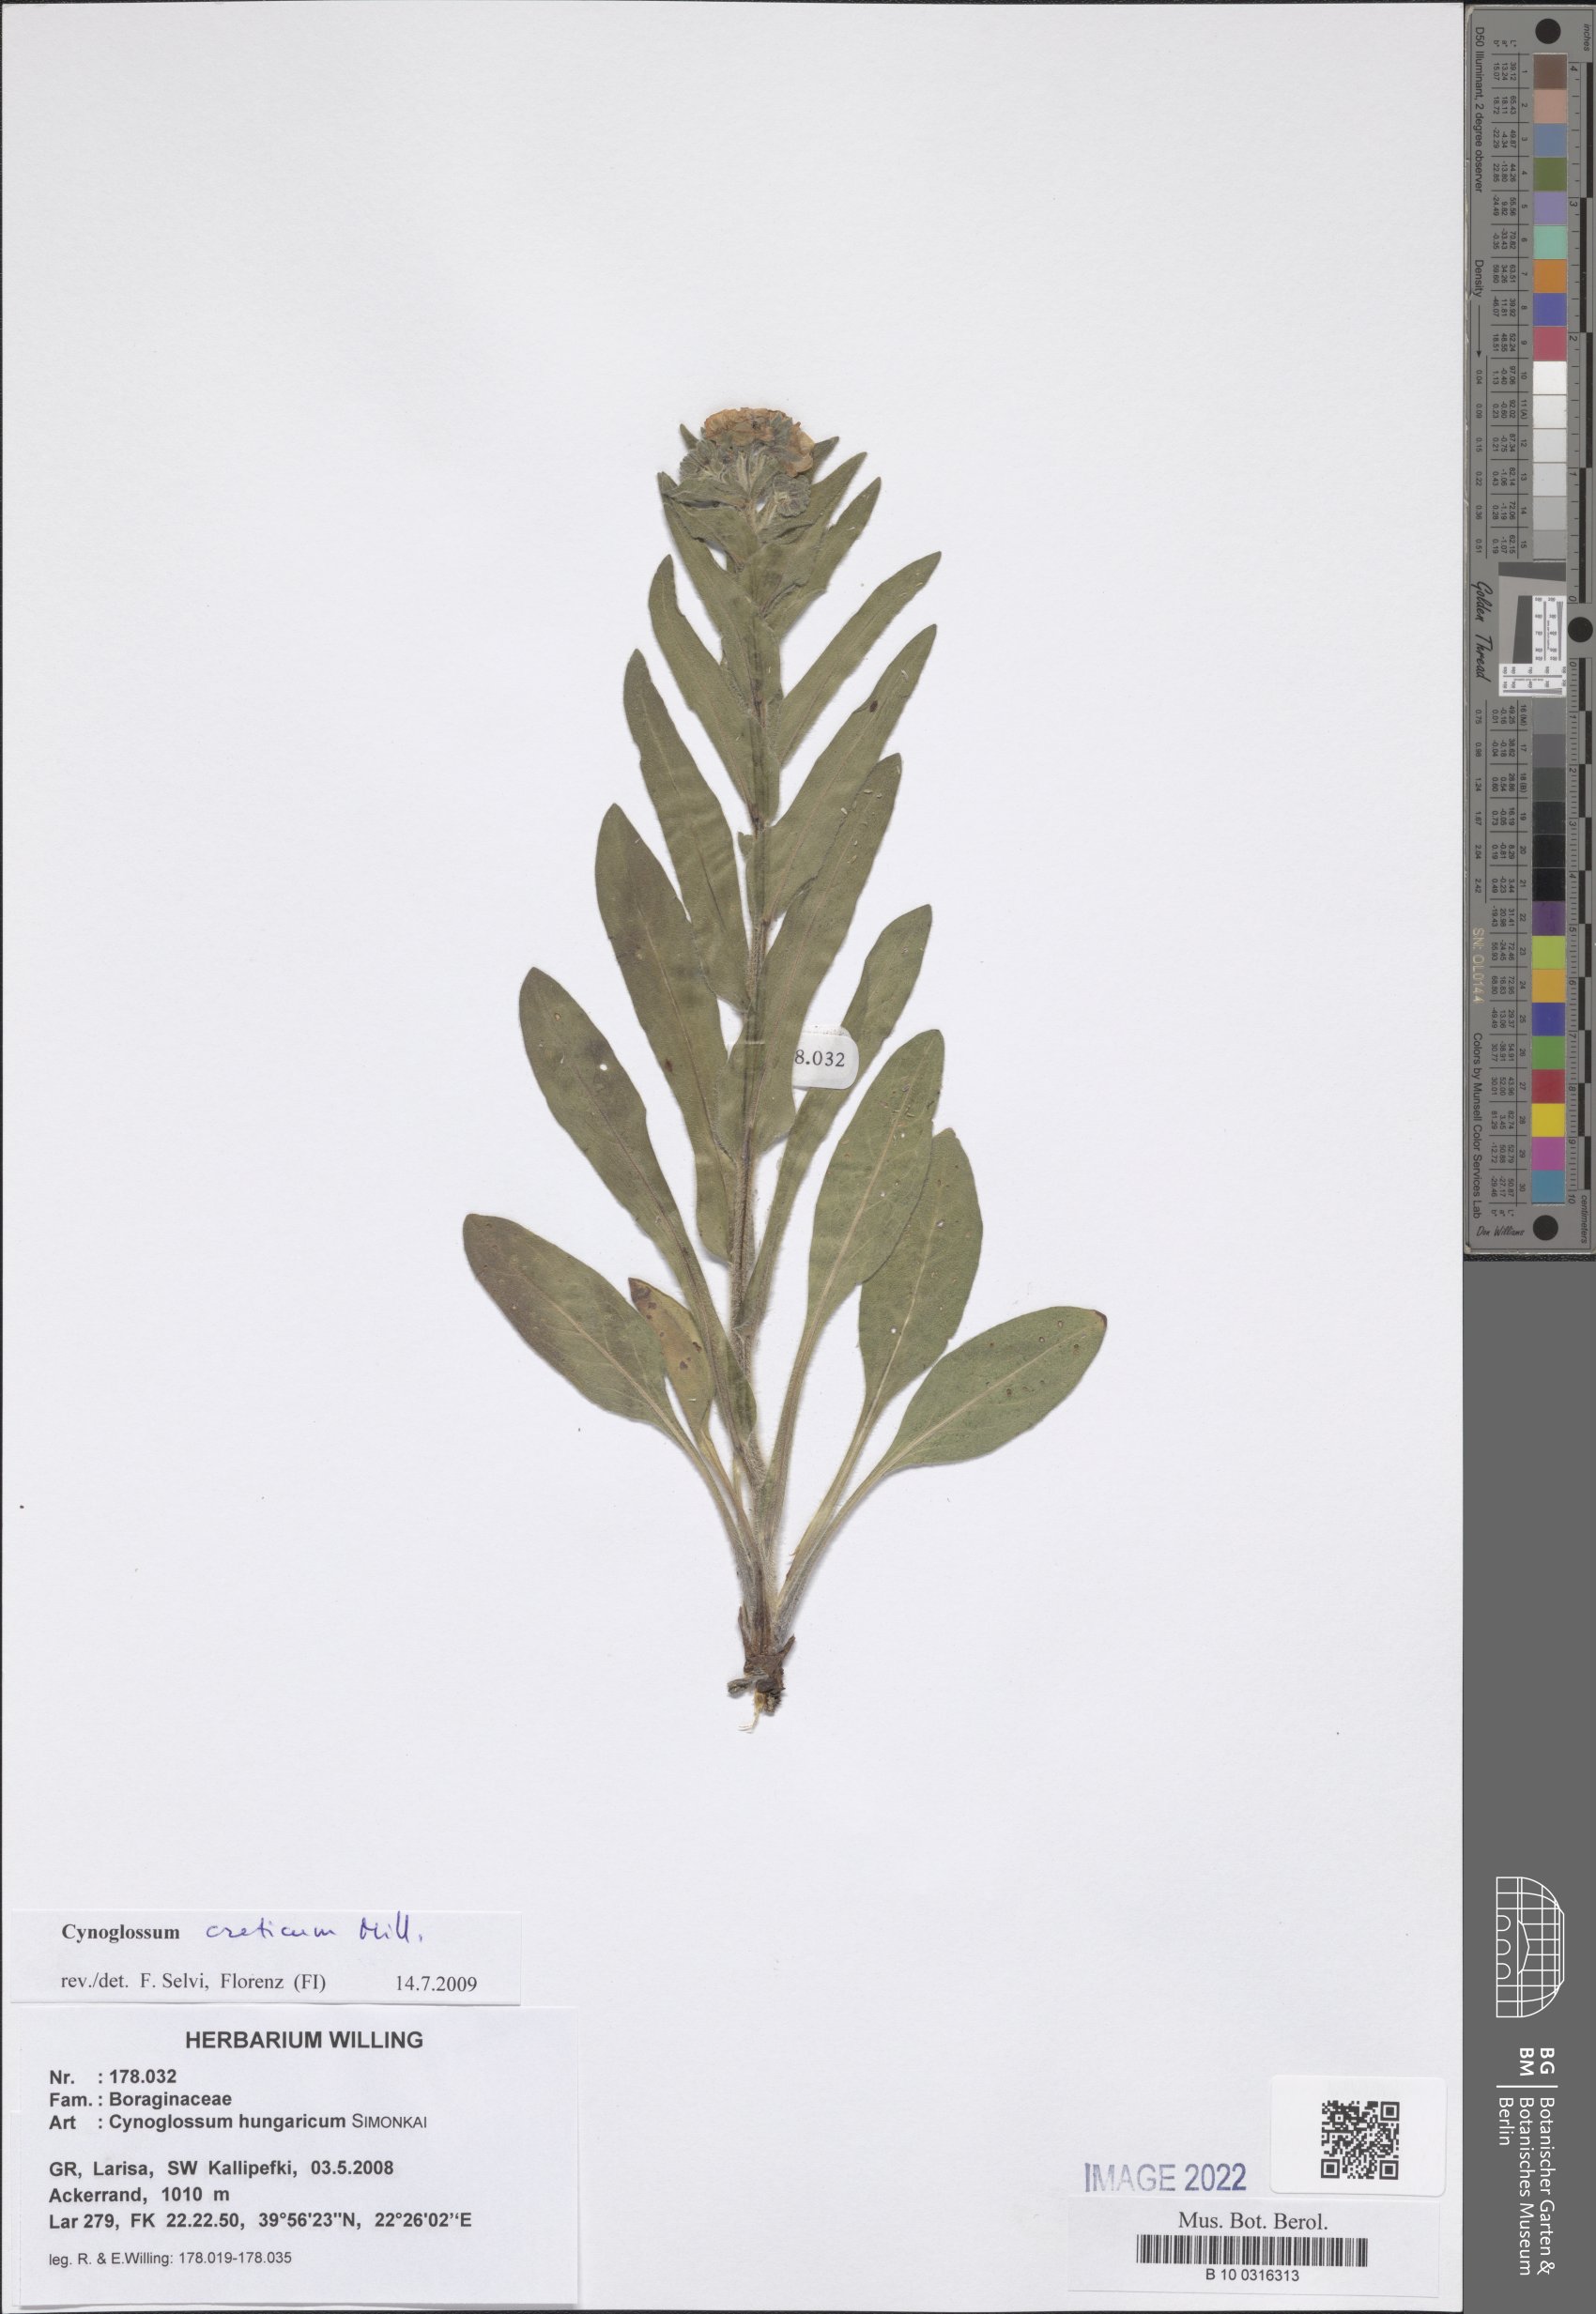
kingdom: Plantae
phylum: Tracheophyta
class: Magnoliopsida
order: Boraginales
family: Boraginaceae
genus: Cynoglossum
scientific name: Cynoglossum montanum
